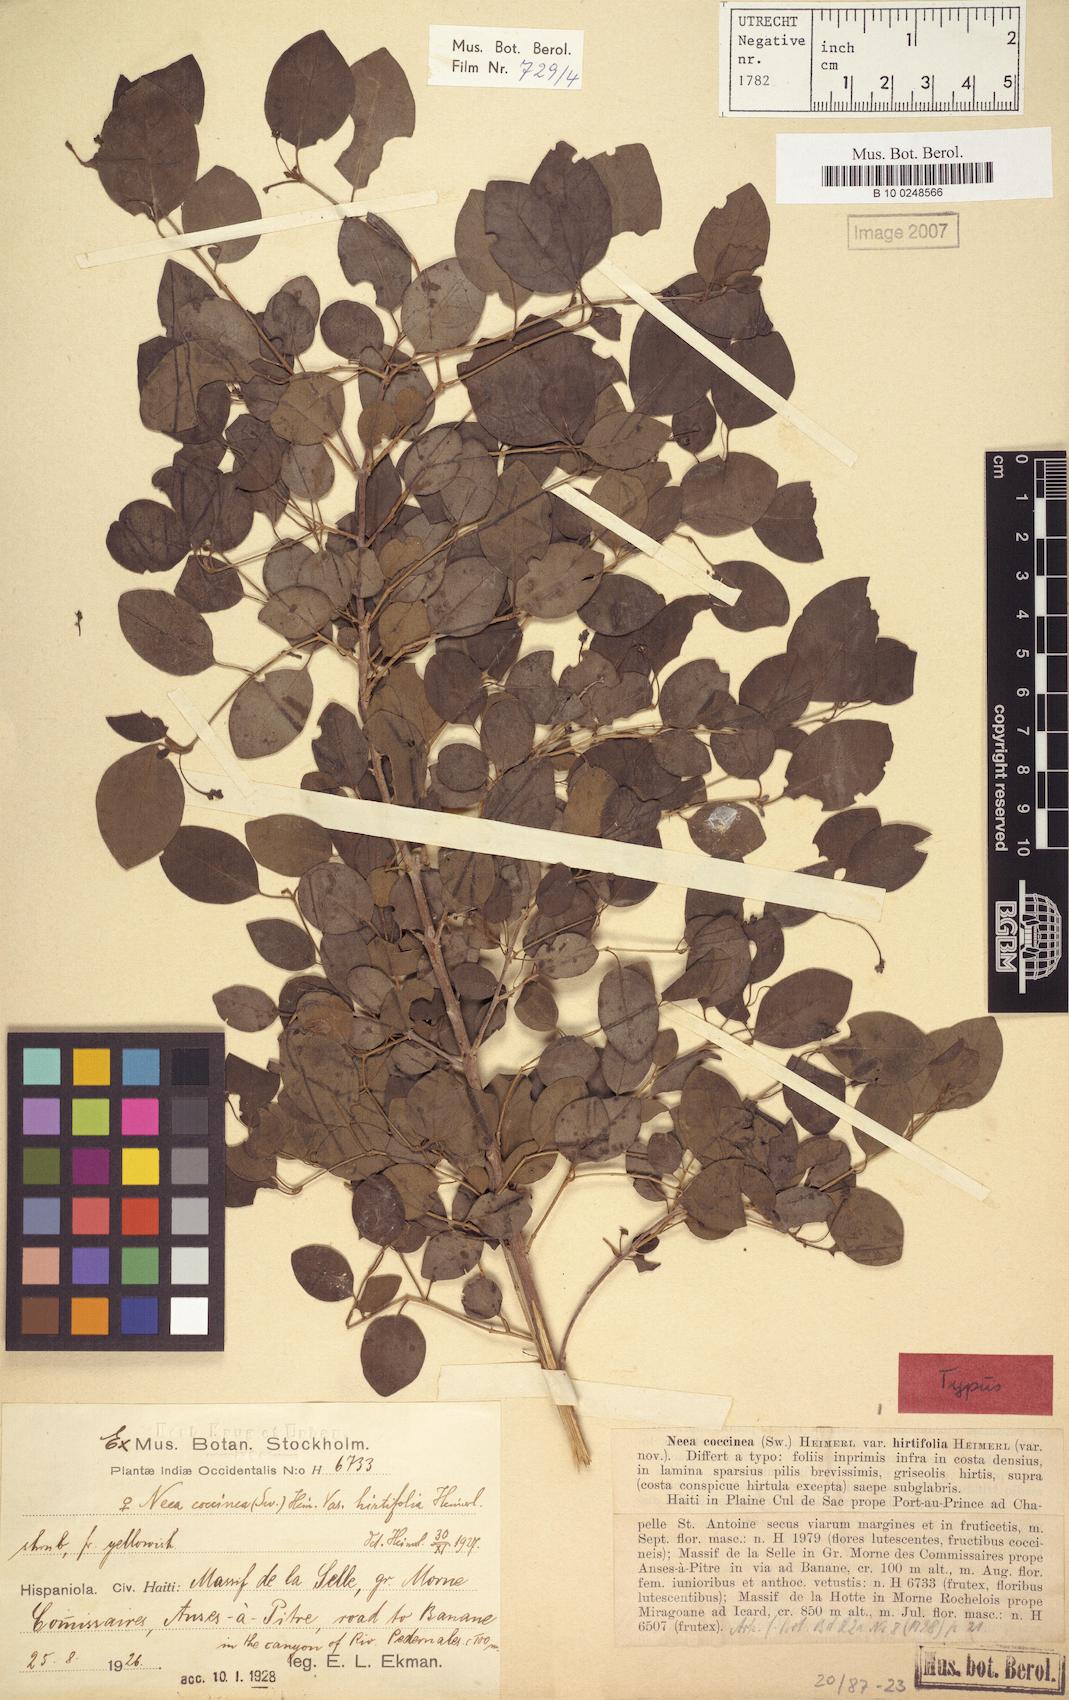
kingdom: Plantae
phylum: Tracheophyta
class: Magnoliopsida
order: Caryophyllales
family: Nyctaginaceae
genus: Neea
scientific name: Neea coccinea
